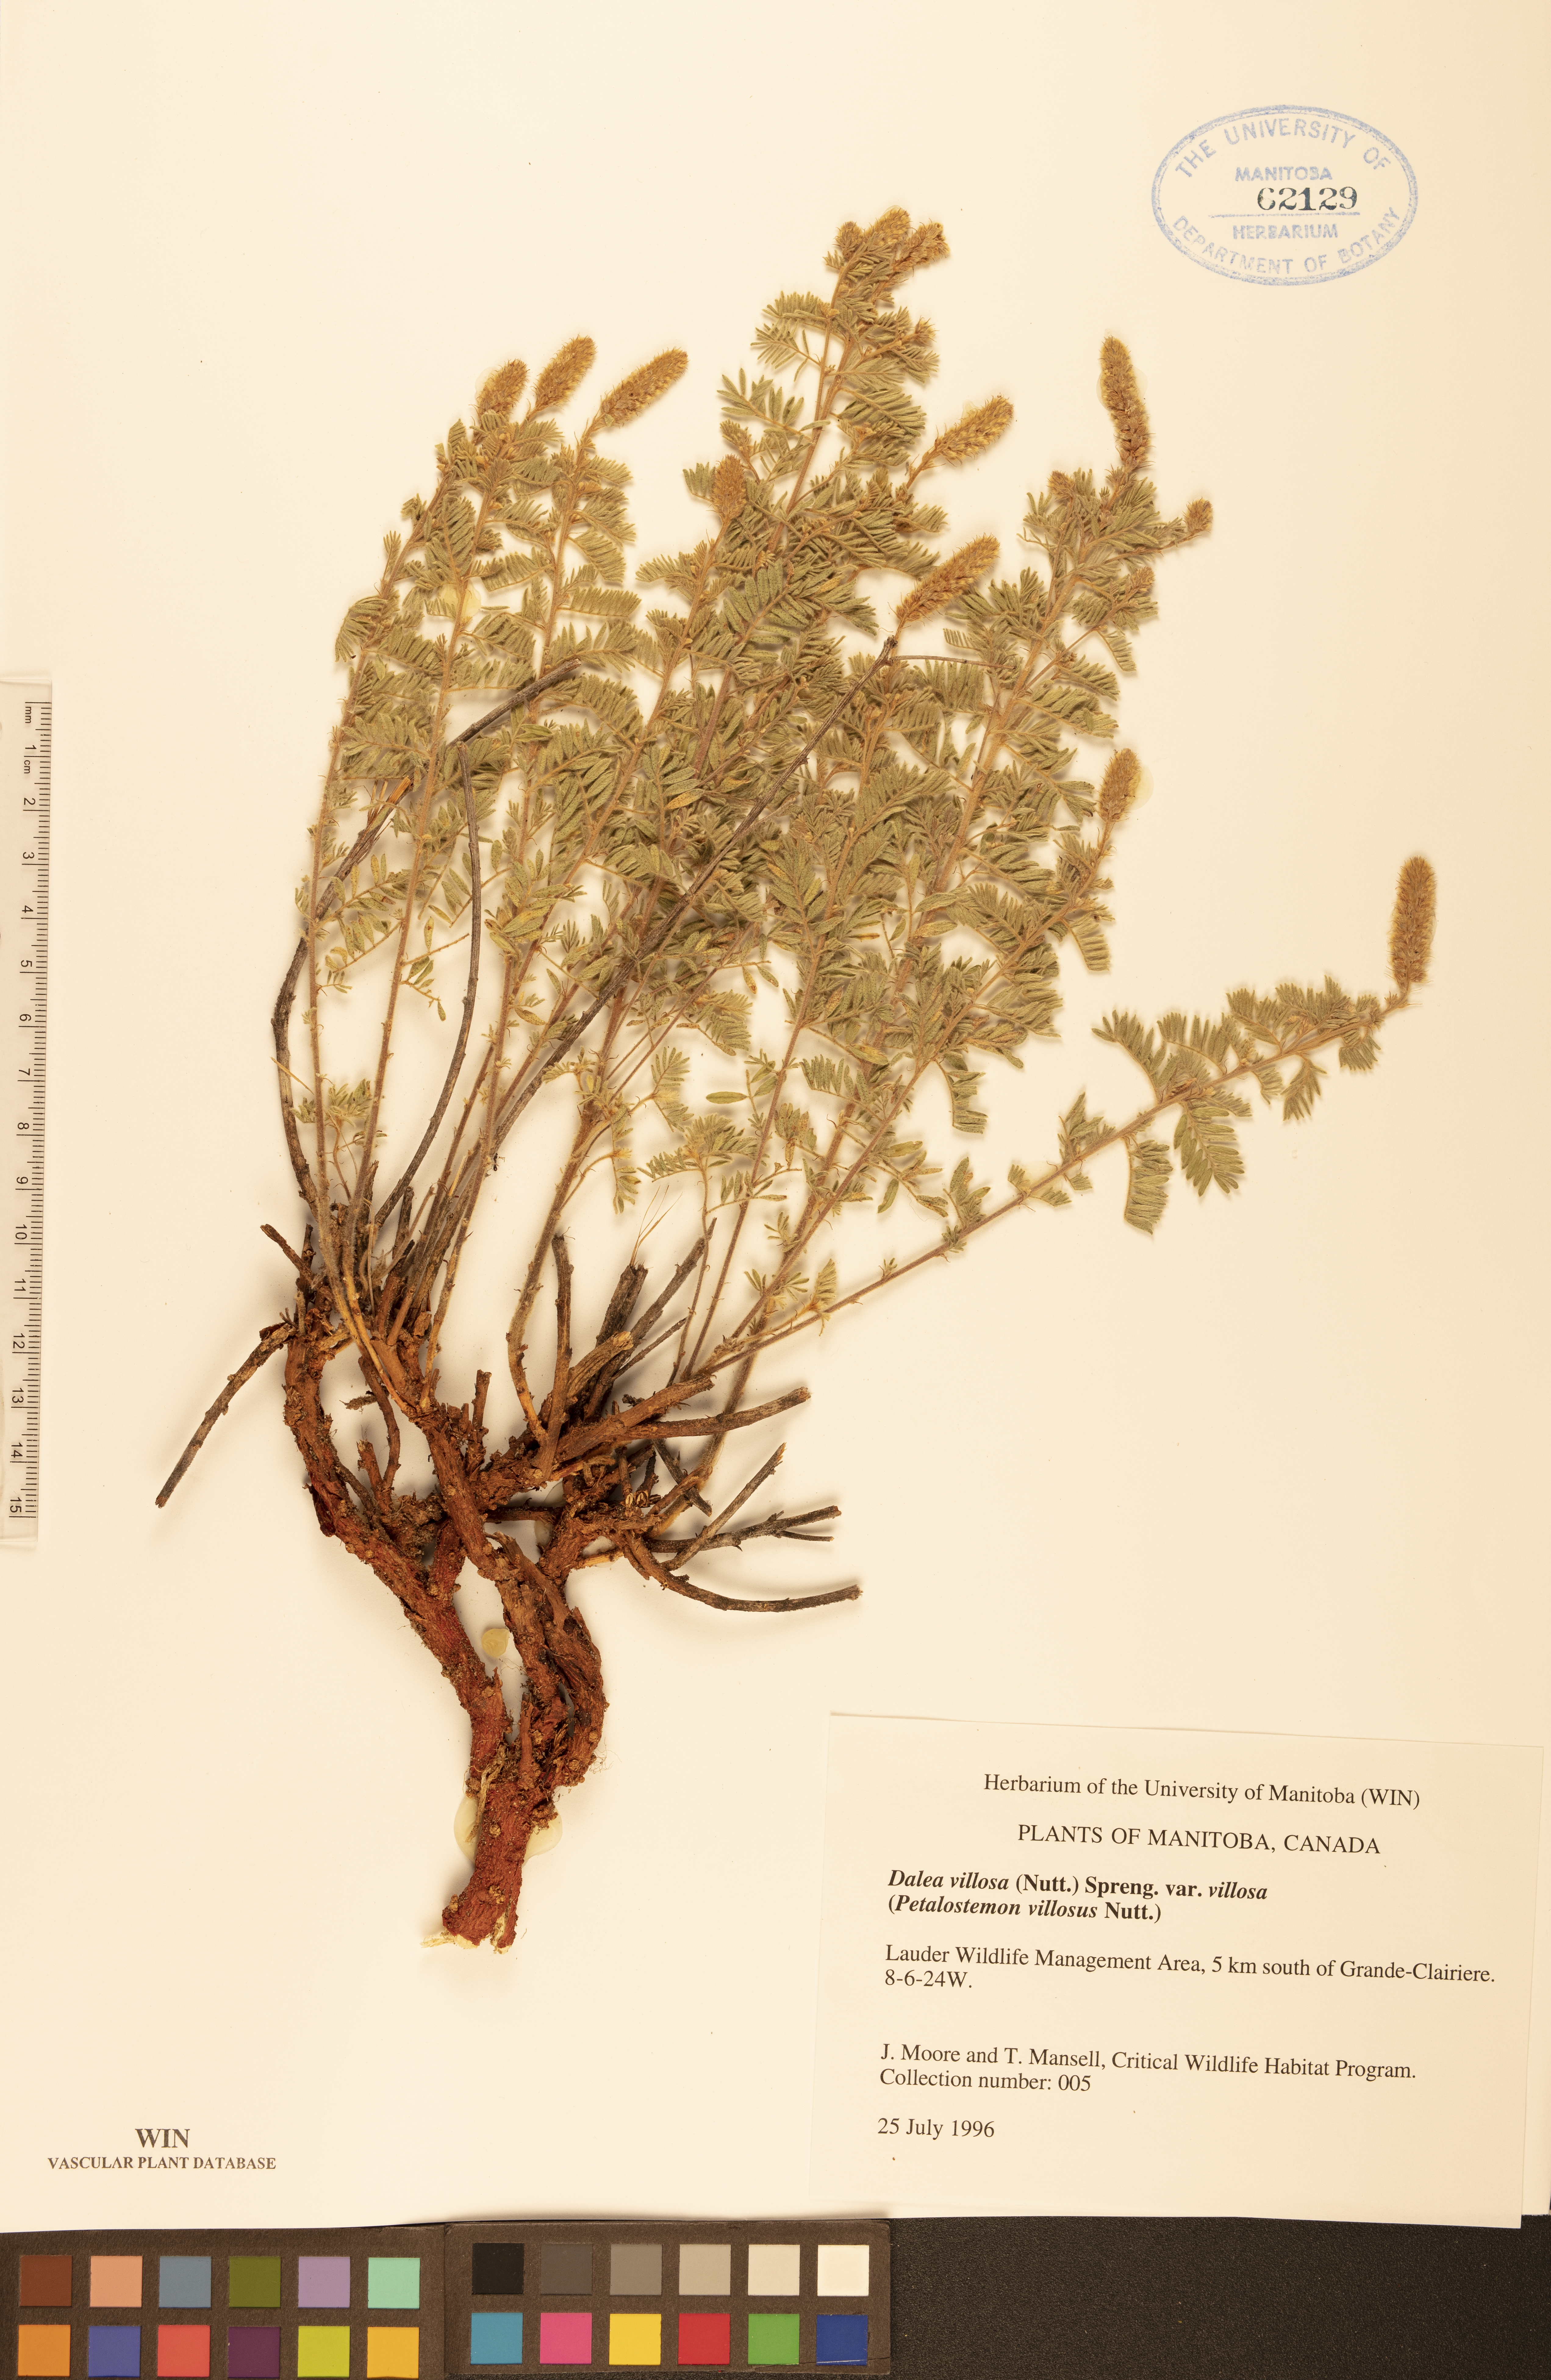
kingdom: Plantae
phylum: Tracheophyta
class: Magnoliopsida
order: Fabales
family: Fabaceae
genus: Dalea
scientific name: Dalea villosa
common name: Silky prairie-clover
